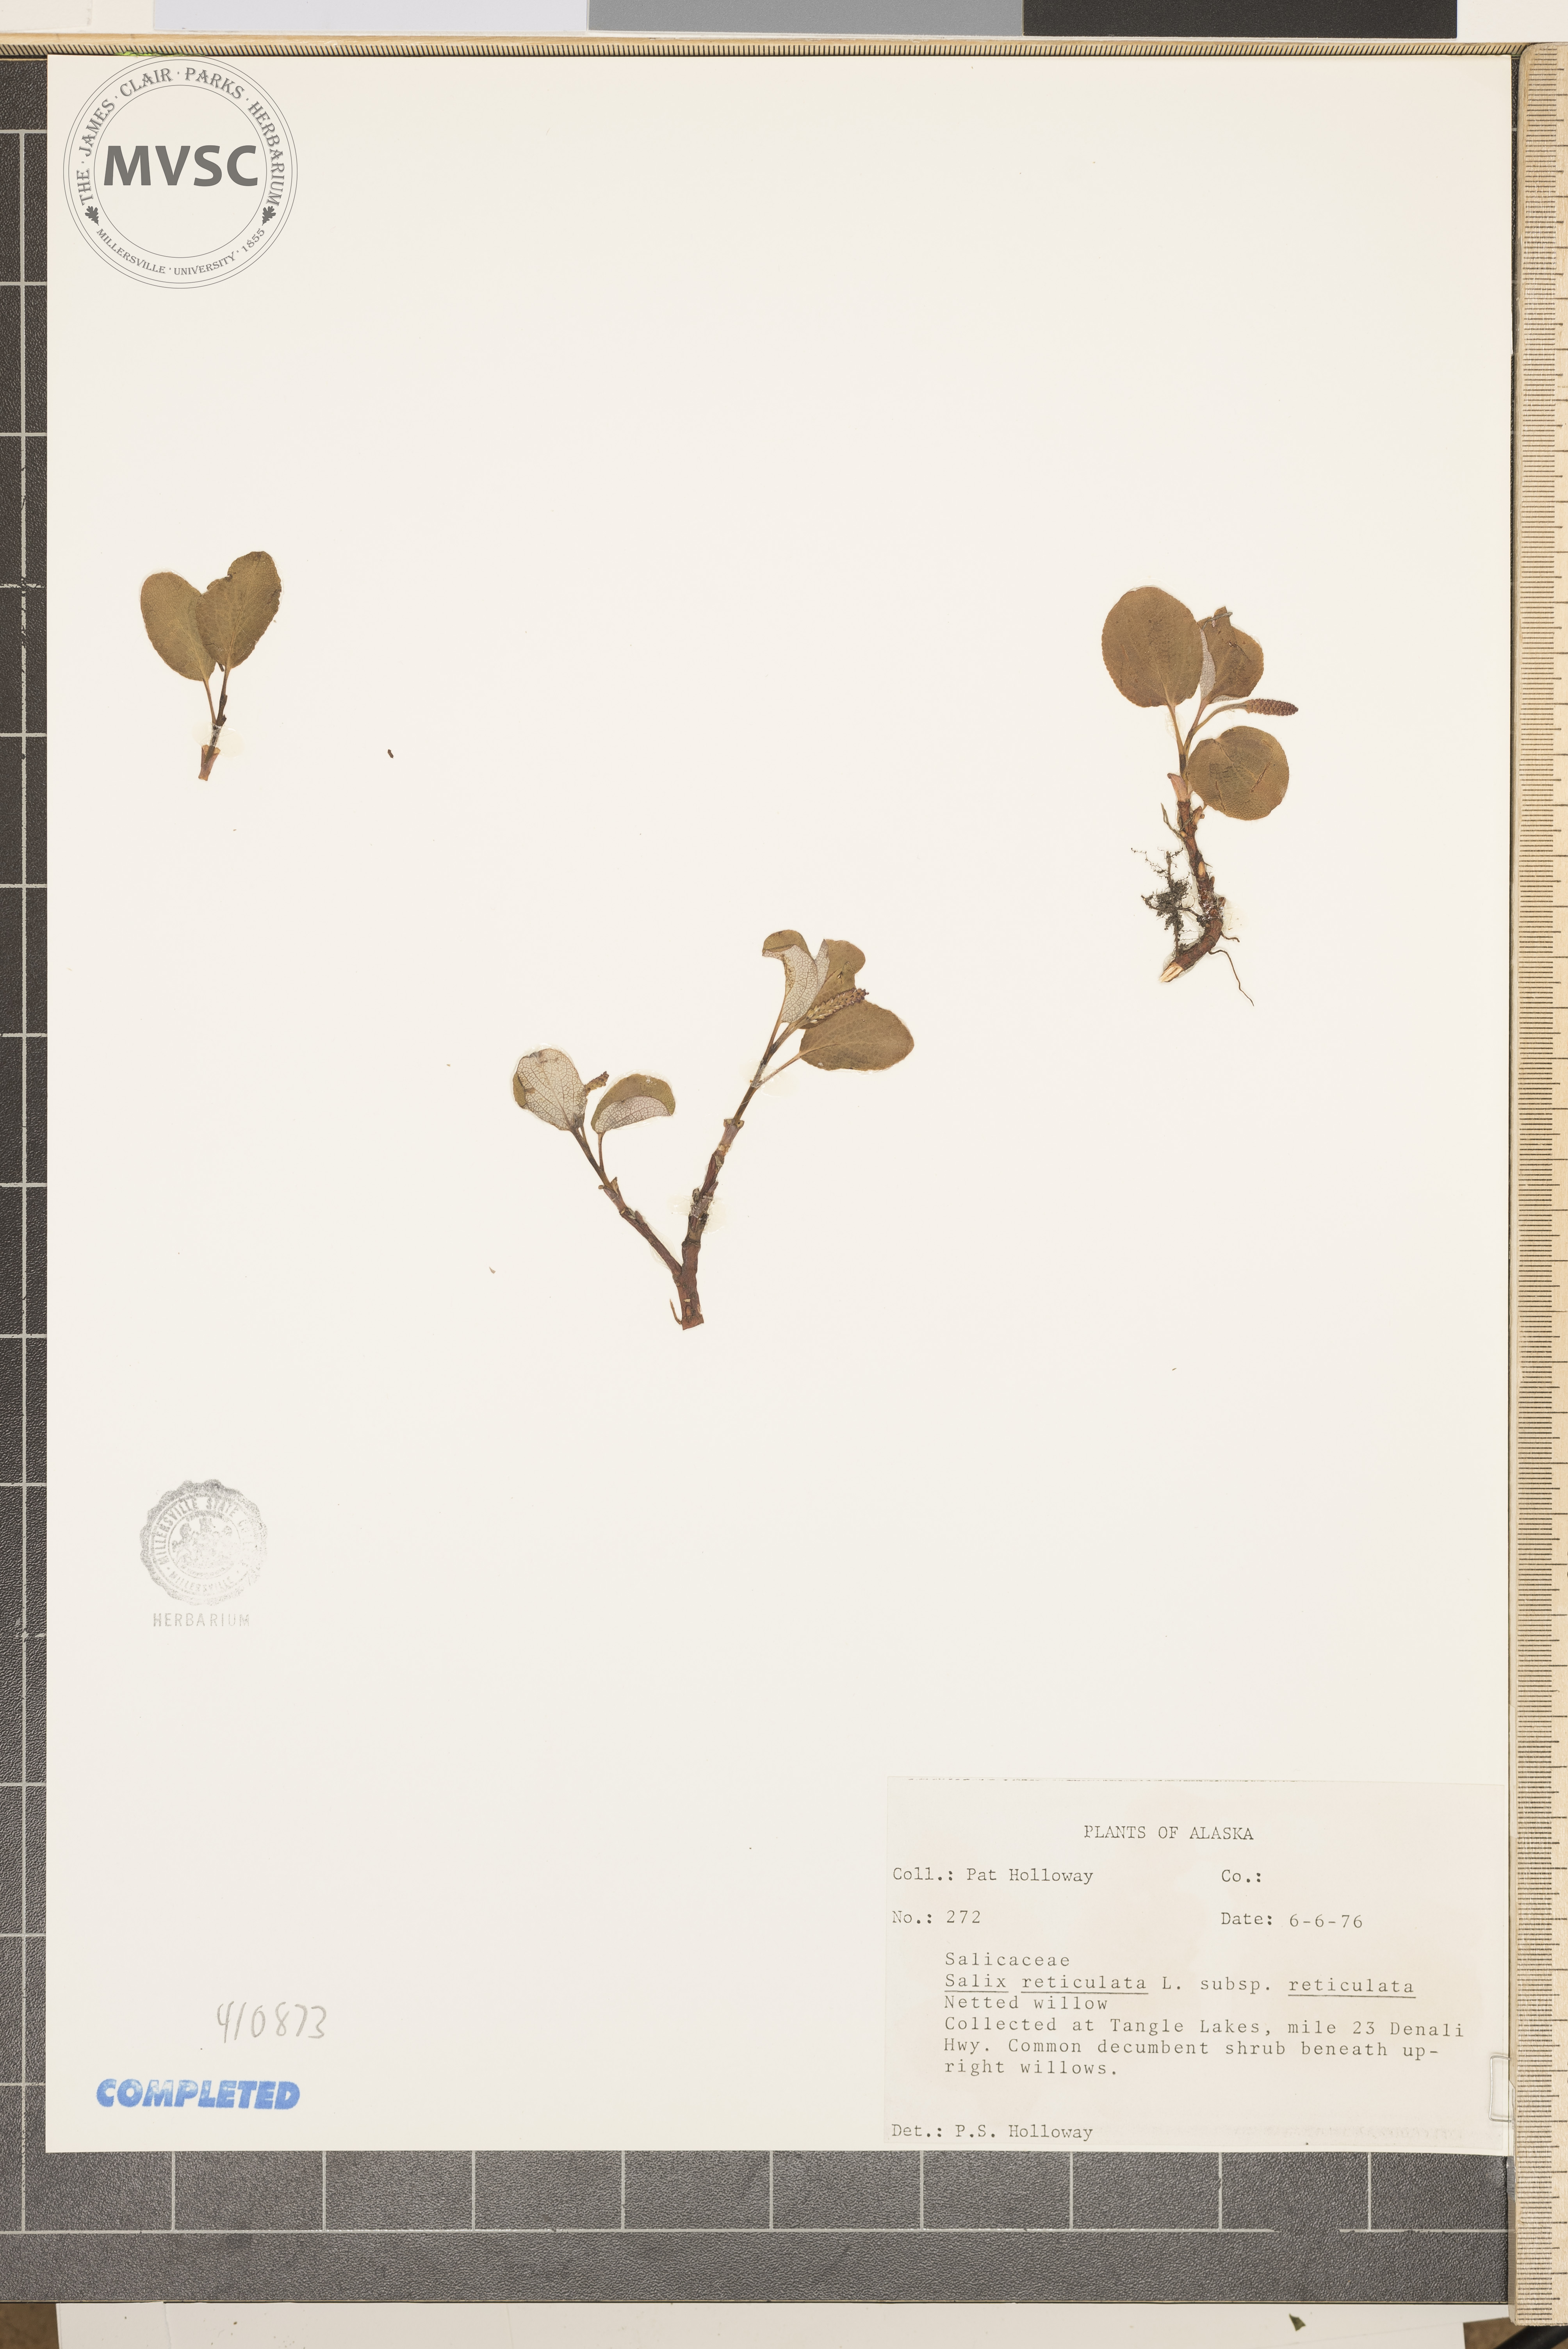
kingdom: Plantae
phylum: Tracheophyta
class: Magnoliopsida
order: Malpighiales
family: Salicaceae
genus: Salix
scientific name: Salix reticulata
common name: Net-leaved willow
